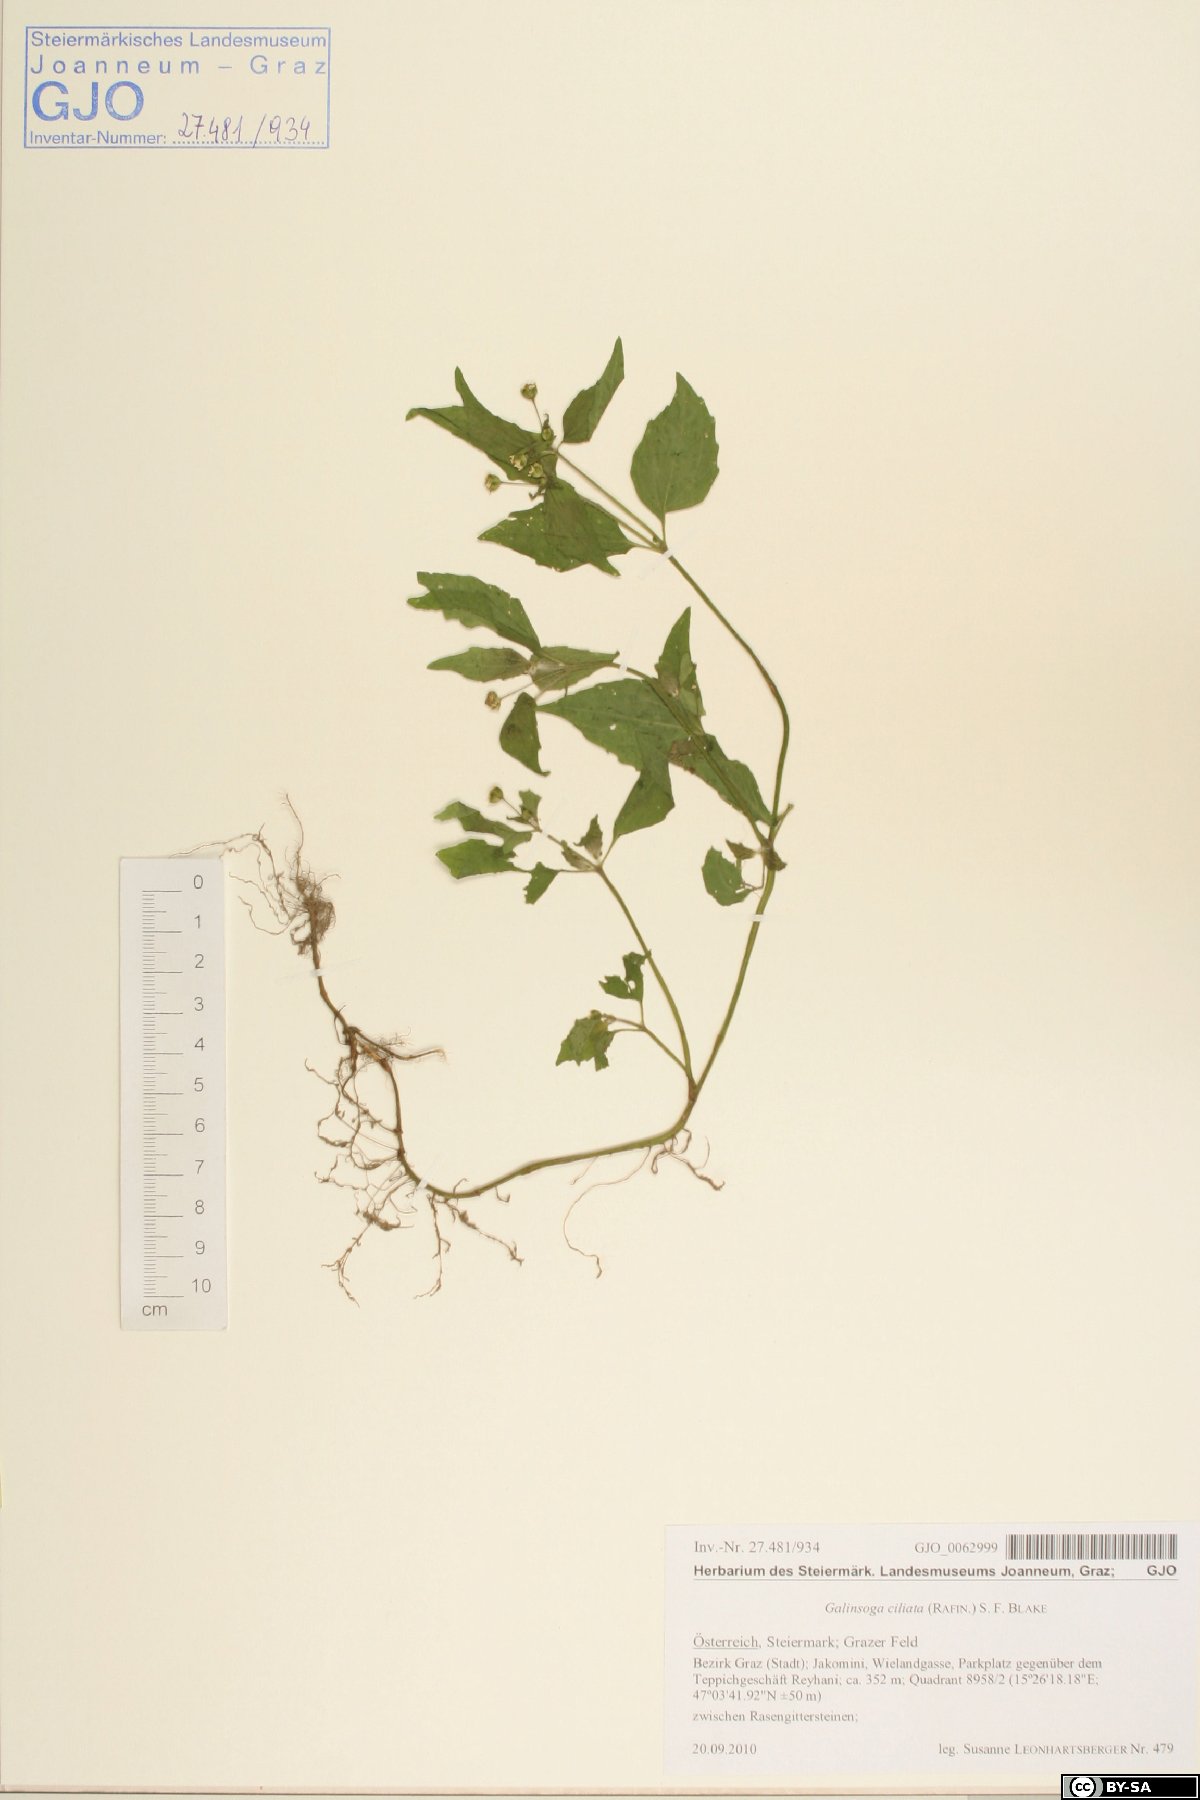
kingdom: Plantae
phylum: Tracheophyta
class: Magnoliopsida
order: Asterales
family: Asteraceae
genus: Galinsoga
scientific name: Galinsoga quadriradiata
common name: Shaggy soldier
